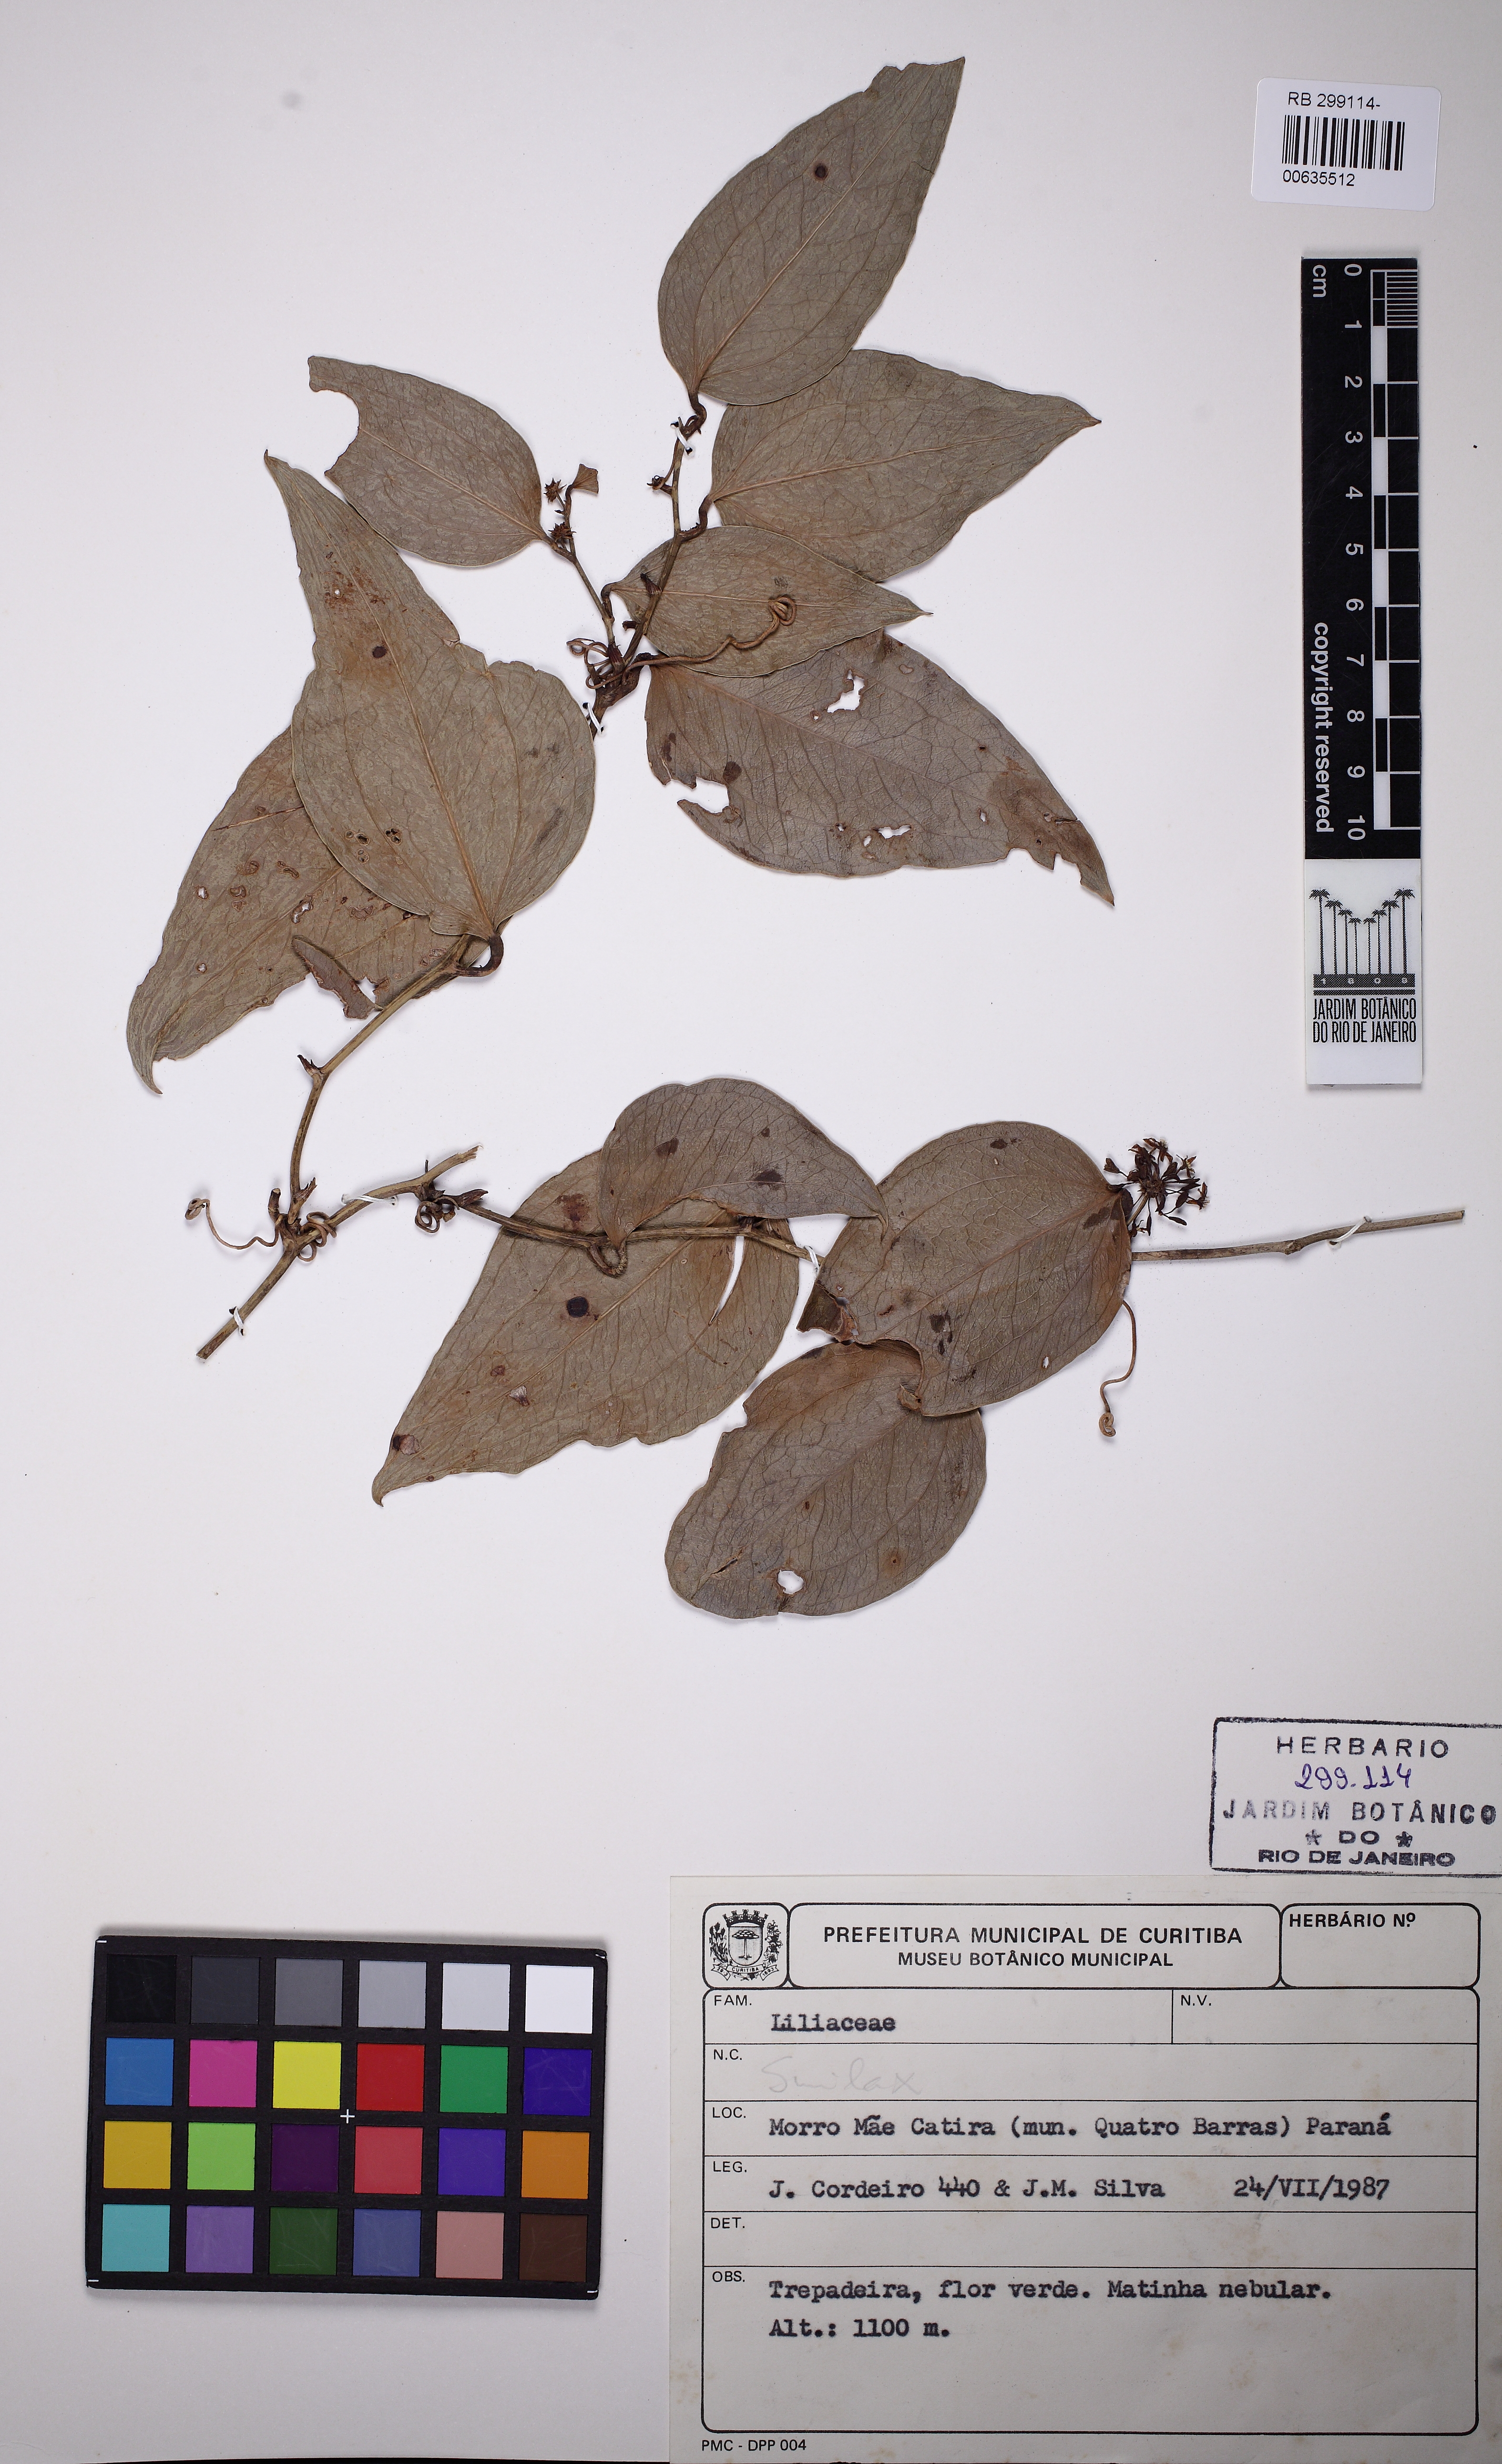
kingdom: Plantae
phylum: Tracheophyta
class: Liliopsida
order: Liliales
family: Smilacaceae
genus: Smilax
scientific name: Smilax
